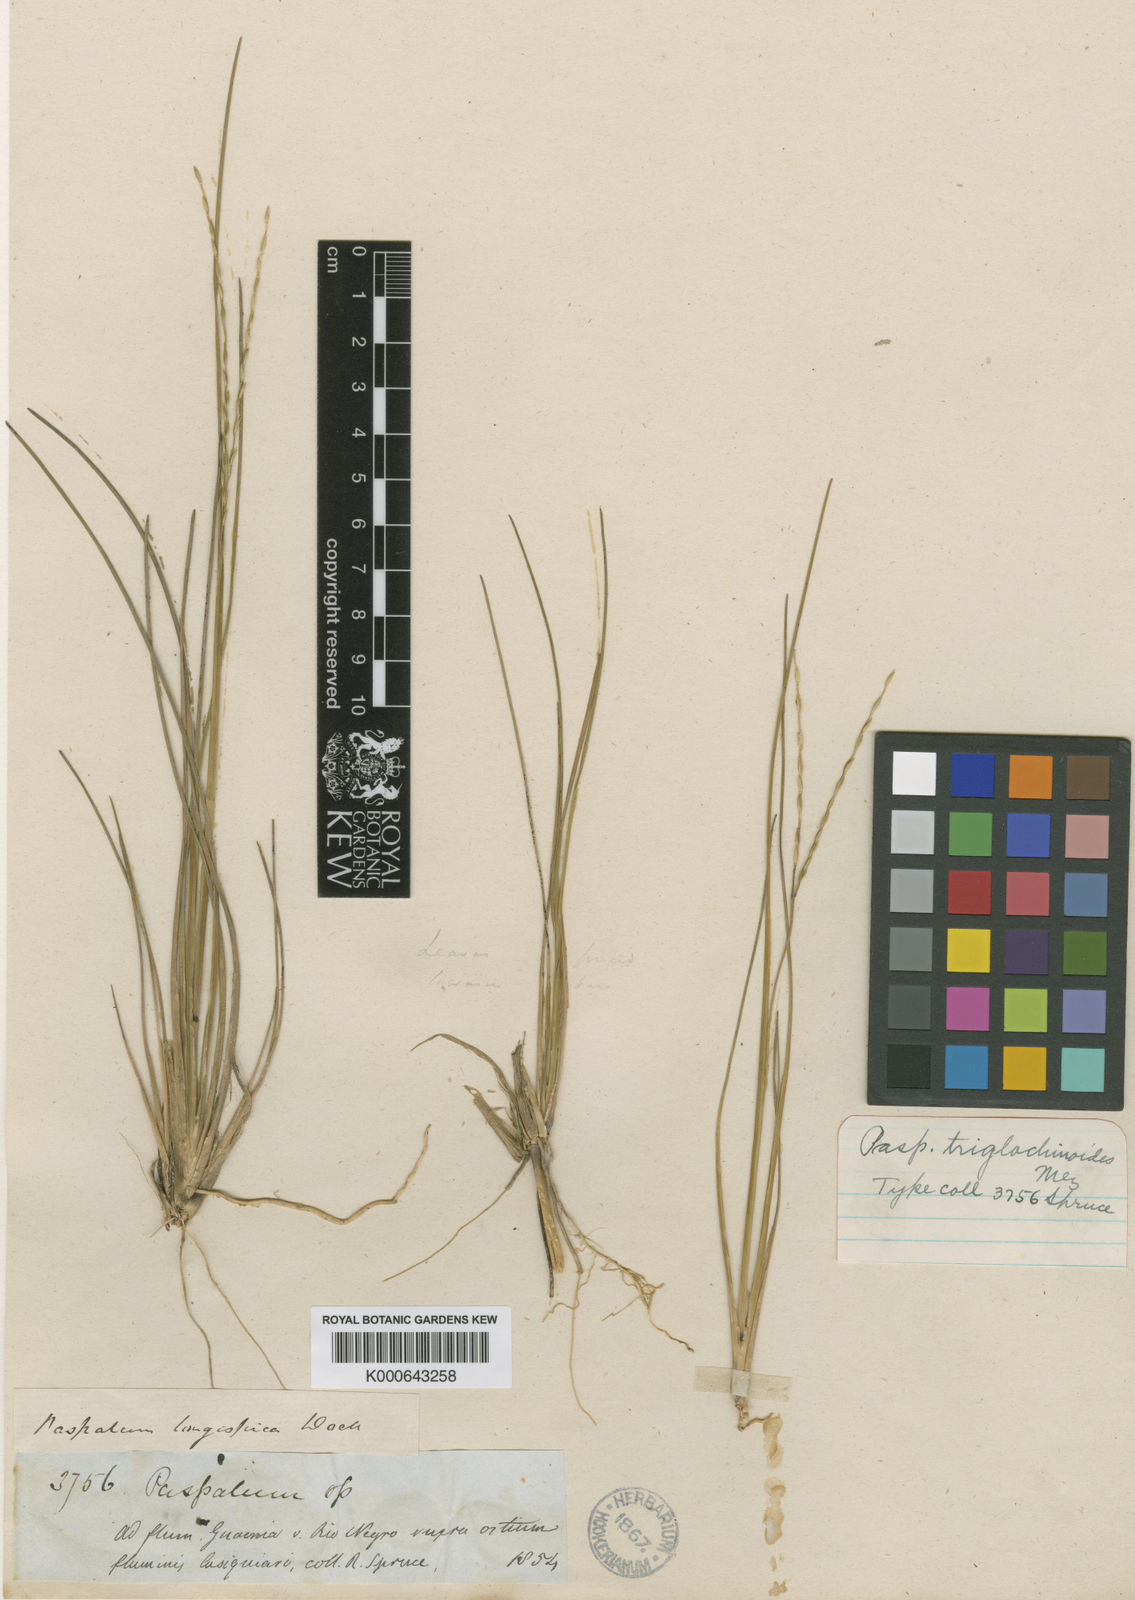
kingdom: Plantae
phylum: Tracheophyta
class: Liliopsida
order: Poales
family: Poaceae
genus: Axonopus
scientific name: Axonopus triglochinoides
